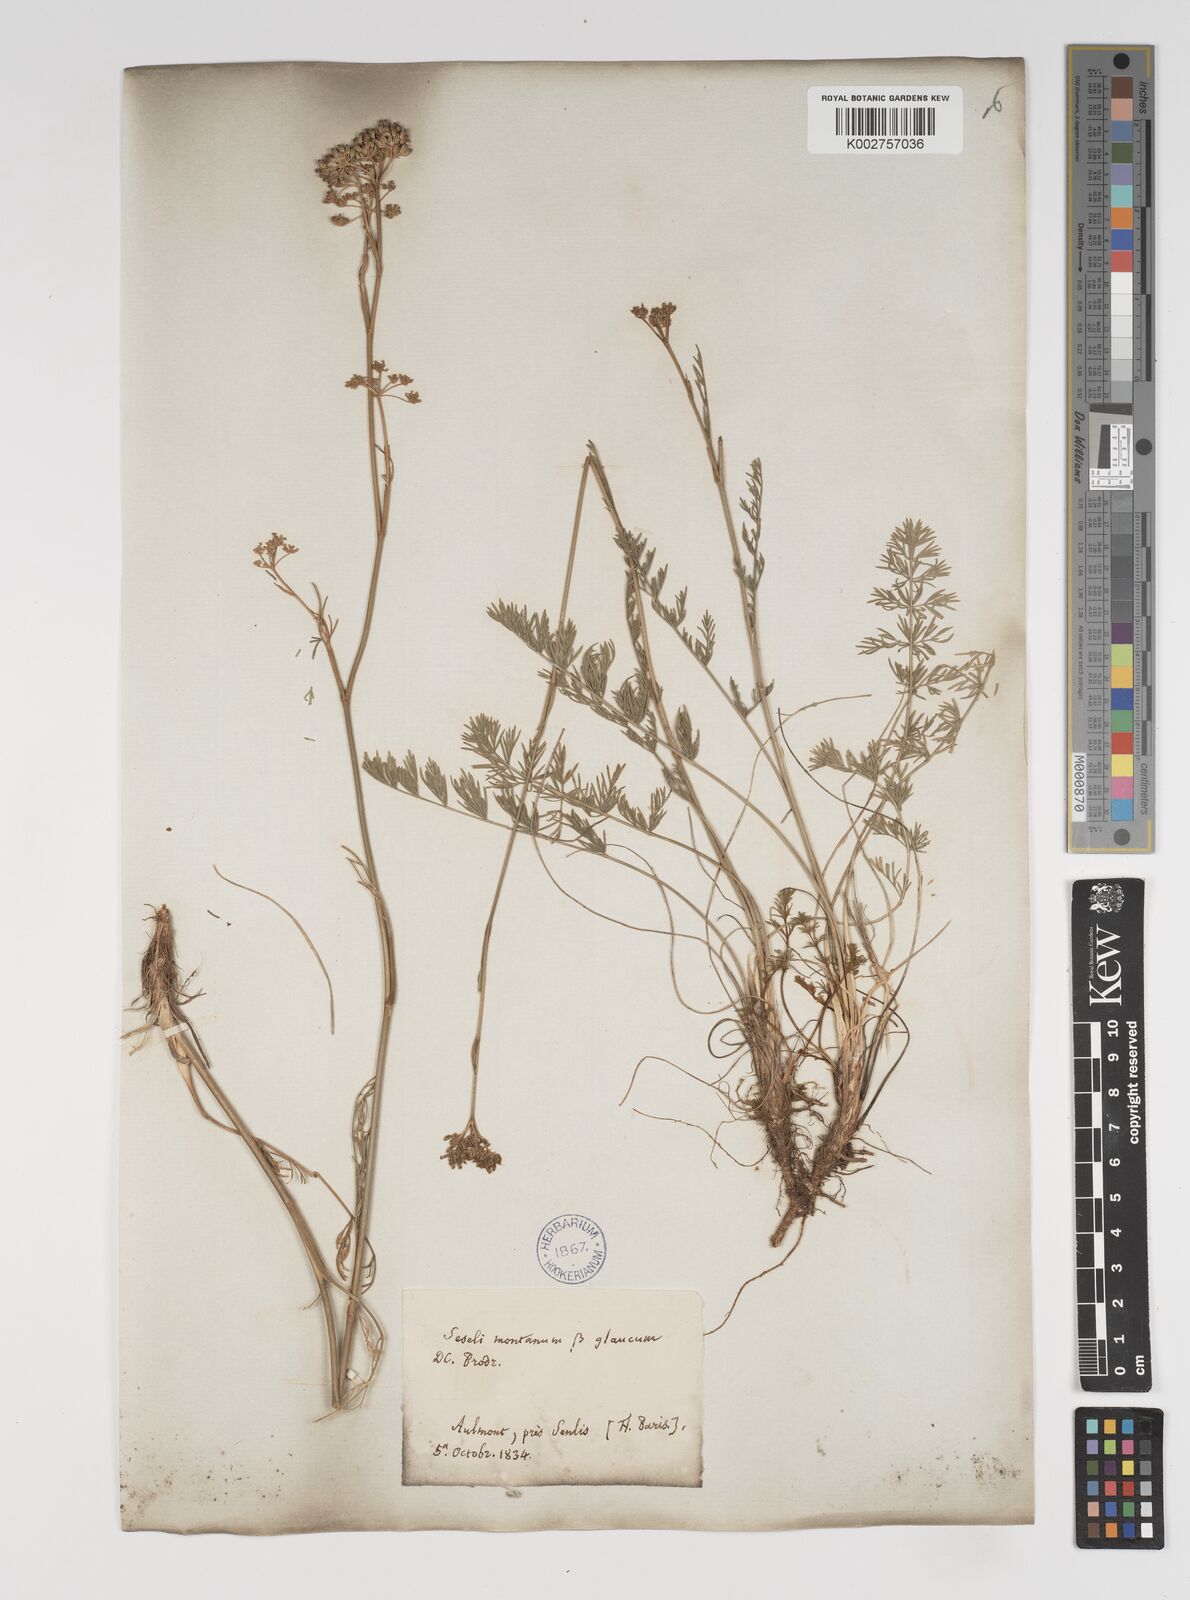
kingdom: Plantae
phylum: Tracheophyta
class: Magnoliopsida
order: Apiales
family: Apiaceae
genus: Seseli
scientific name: Seseli montanum
